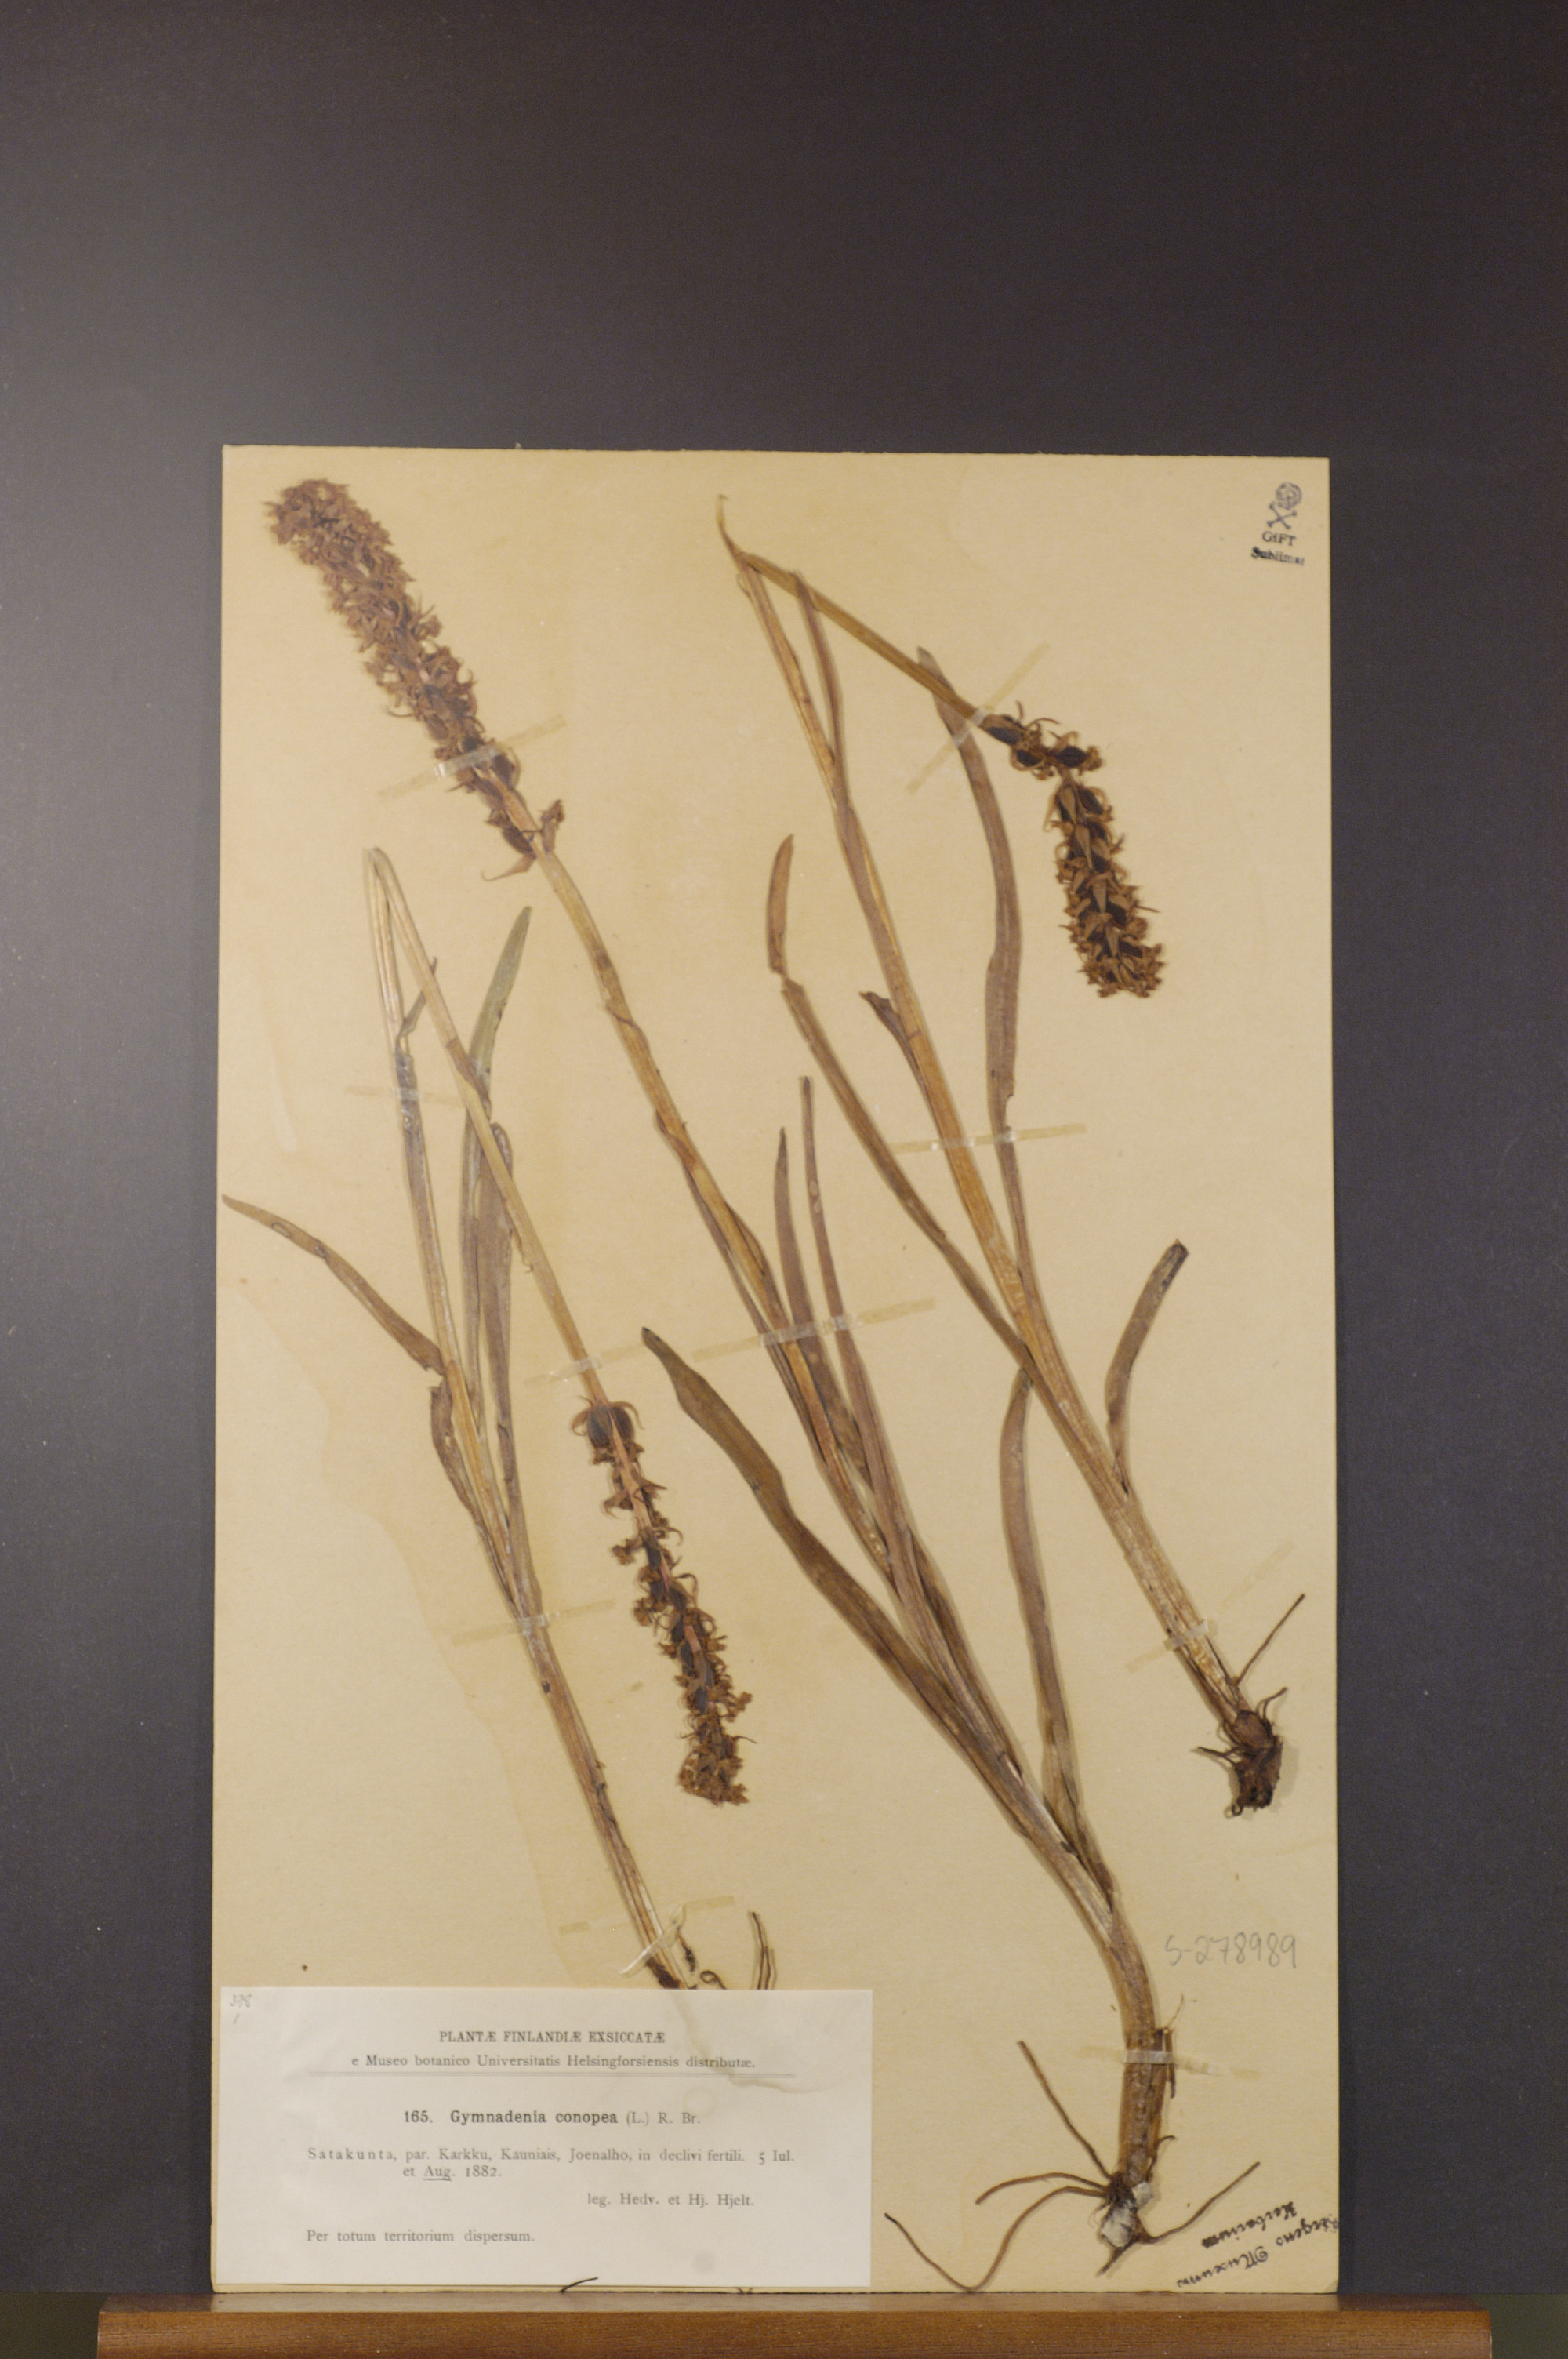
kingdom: Plantae
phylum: Tracheophyta
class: Liliopsida
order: Asparagales
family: Orchidaceae
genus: Gymnadenia
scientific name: Gymnadenia conopsea
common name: Fragrant orchid
